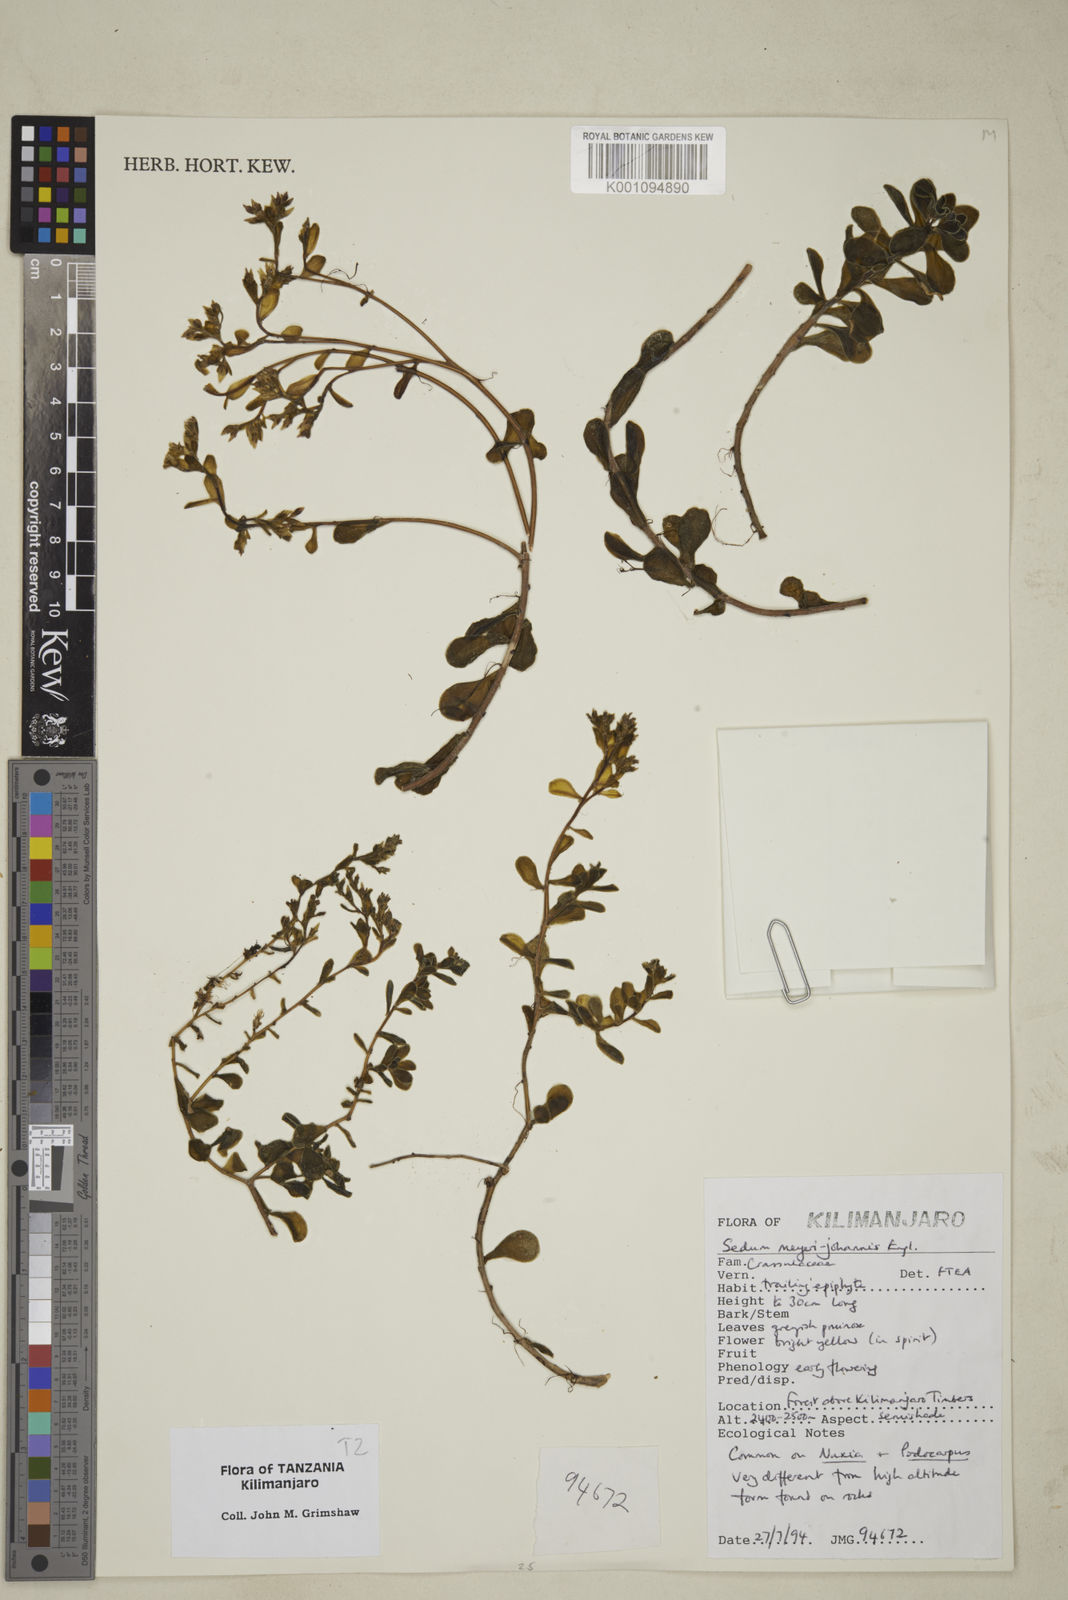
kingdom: Plantae
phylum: Tracheophyta
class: Magnoliopsida
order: Saxifragales
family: Crassulaceae
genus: Sedum
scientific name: Sedum meyeri-johannis
